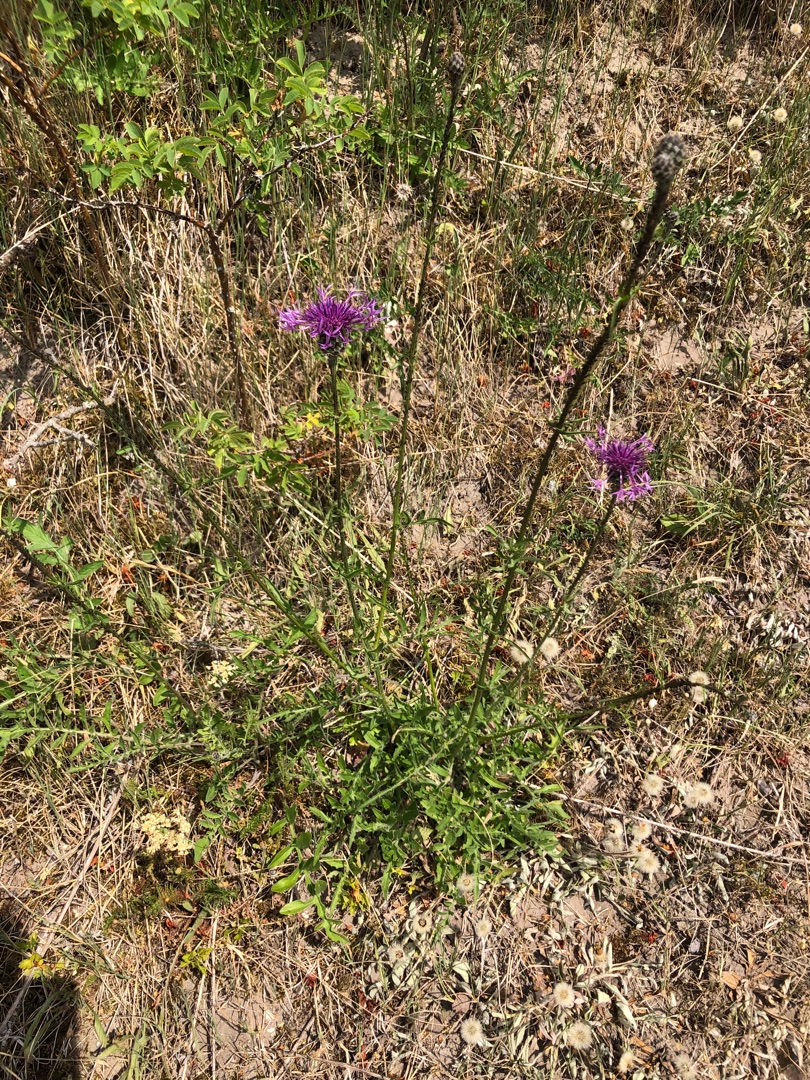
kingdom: Plantae
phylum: Tracheophyta
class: Magnoliopsida
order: Asterales
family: Asteraceae
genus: Centaurea
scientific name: Centaurea scabiosa
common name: Stor knopurt
